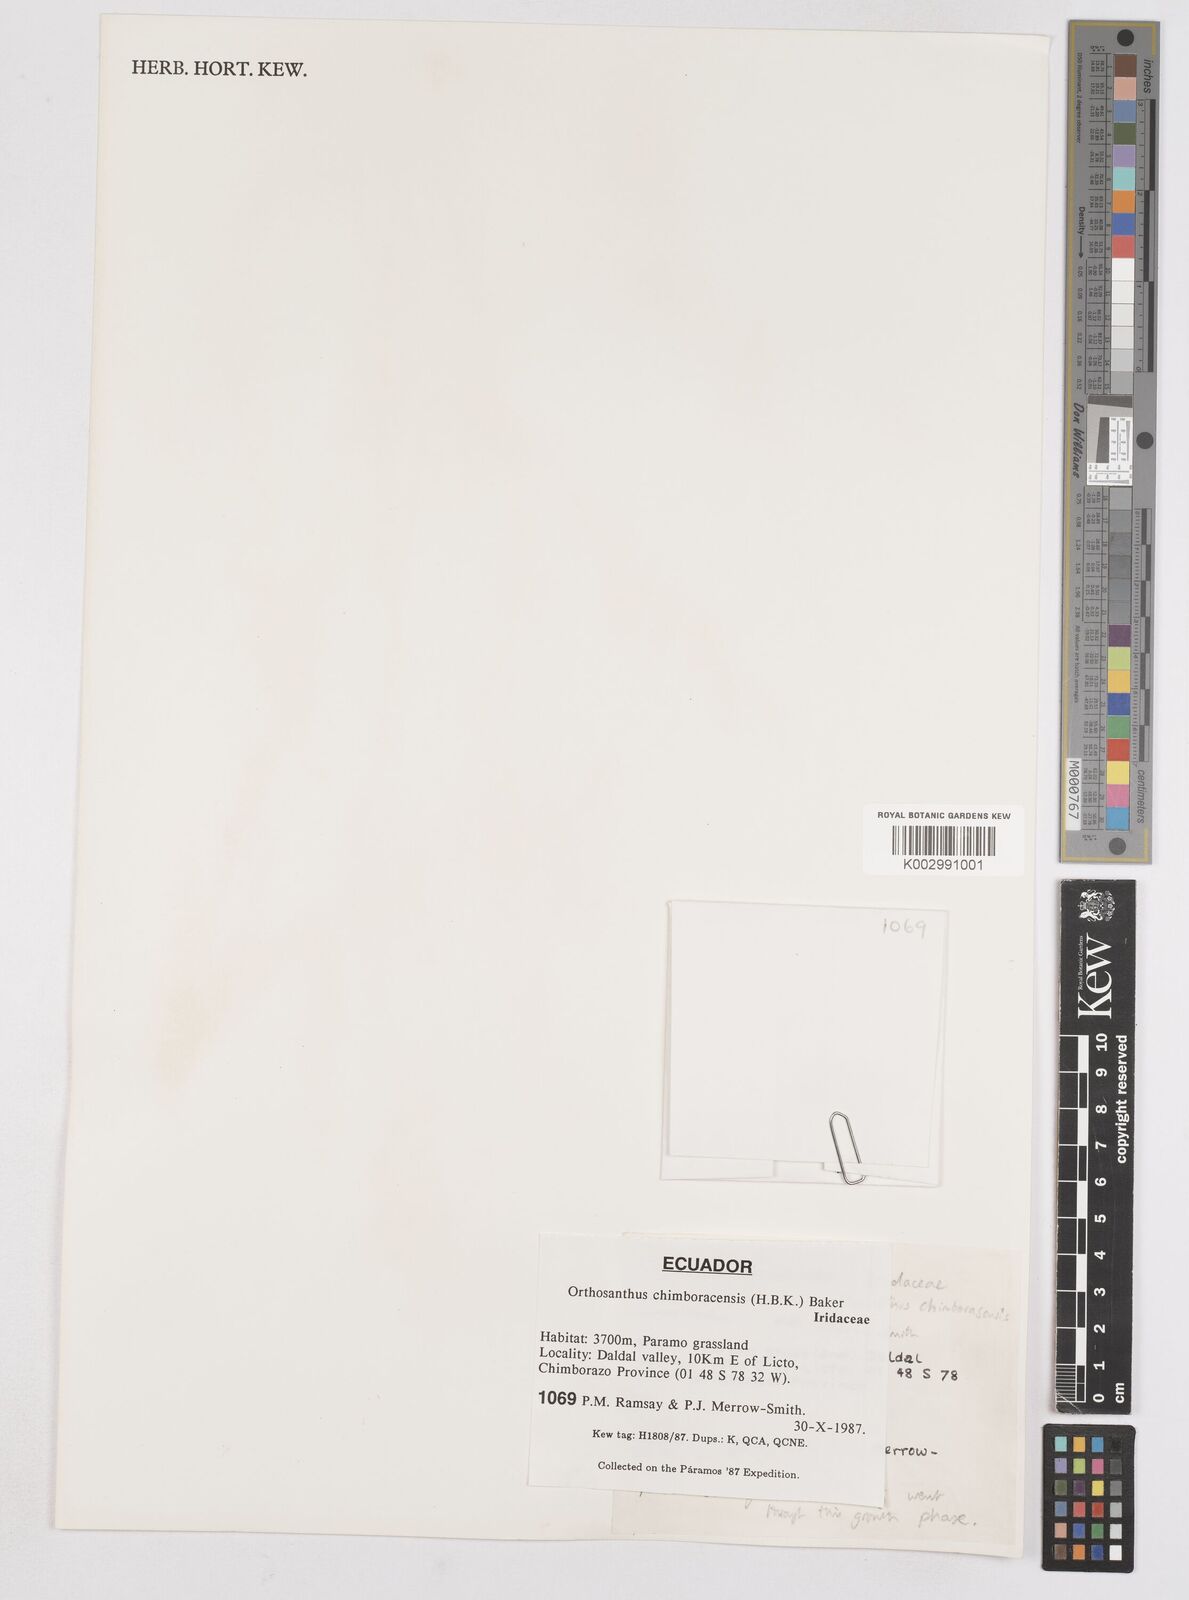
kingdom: Plantae
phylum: Tracheophyta
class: Liliopsida
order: Asparagales
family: Iridaceae
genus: Orthrosanthus
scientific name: Orthrosanthus chimboracensis
